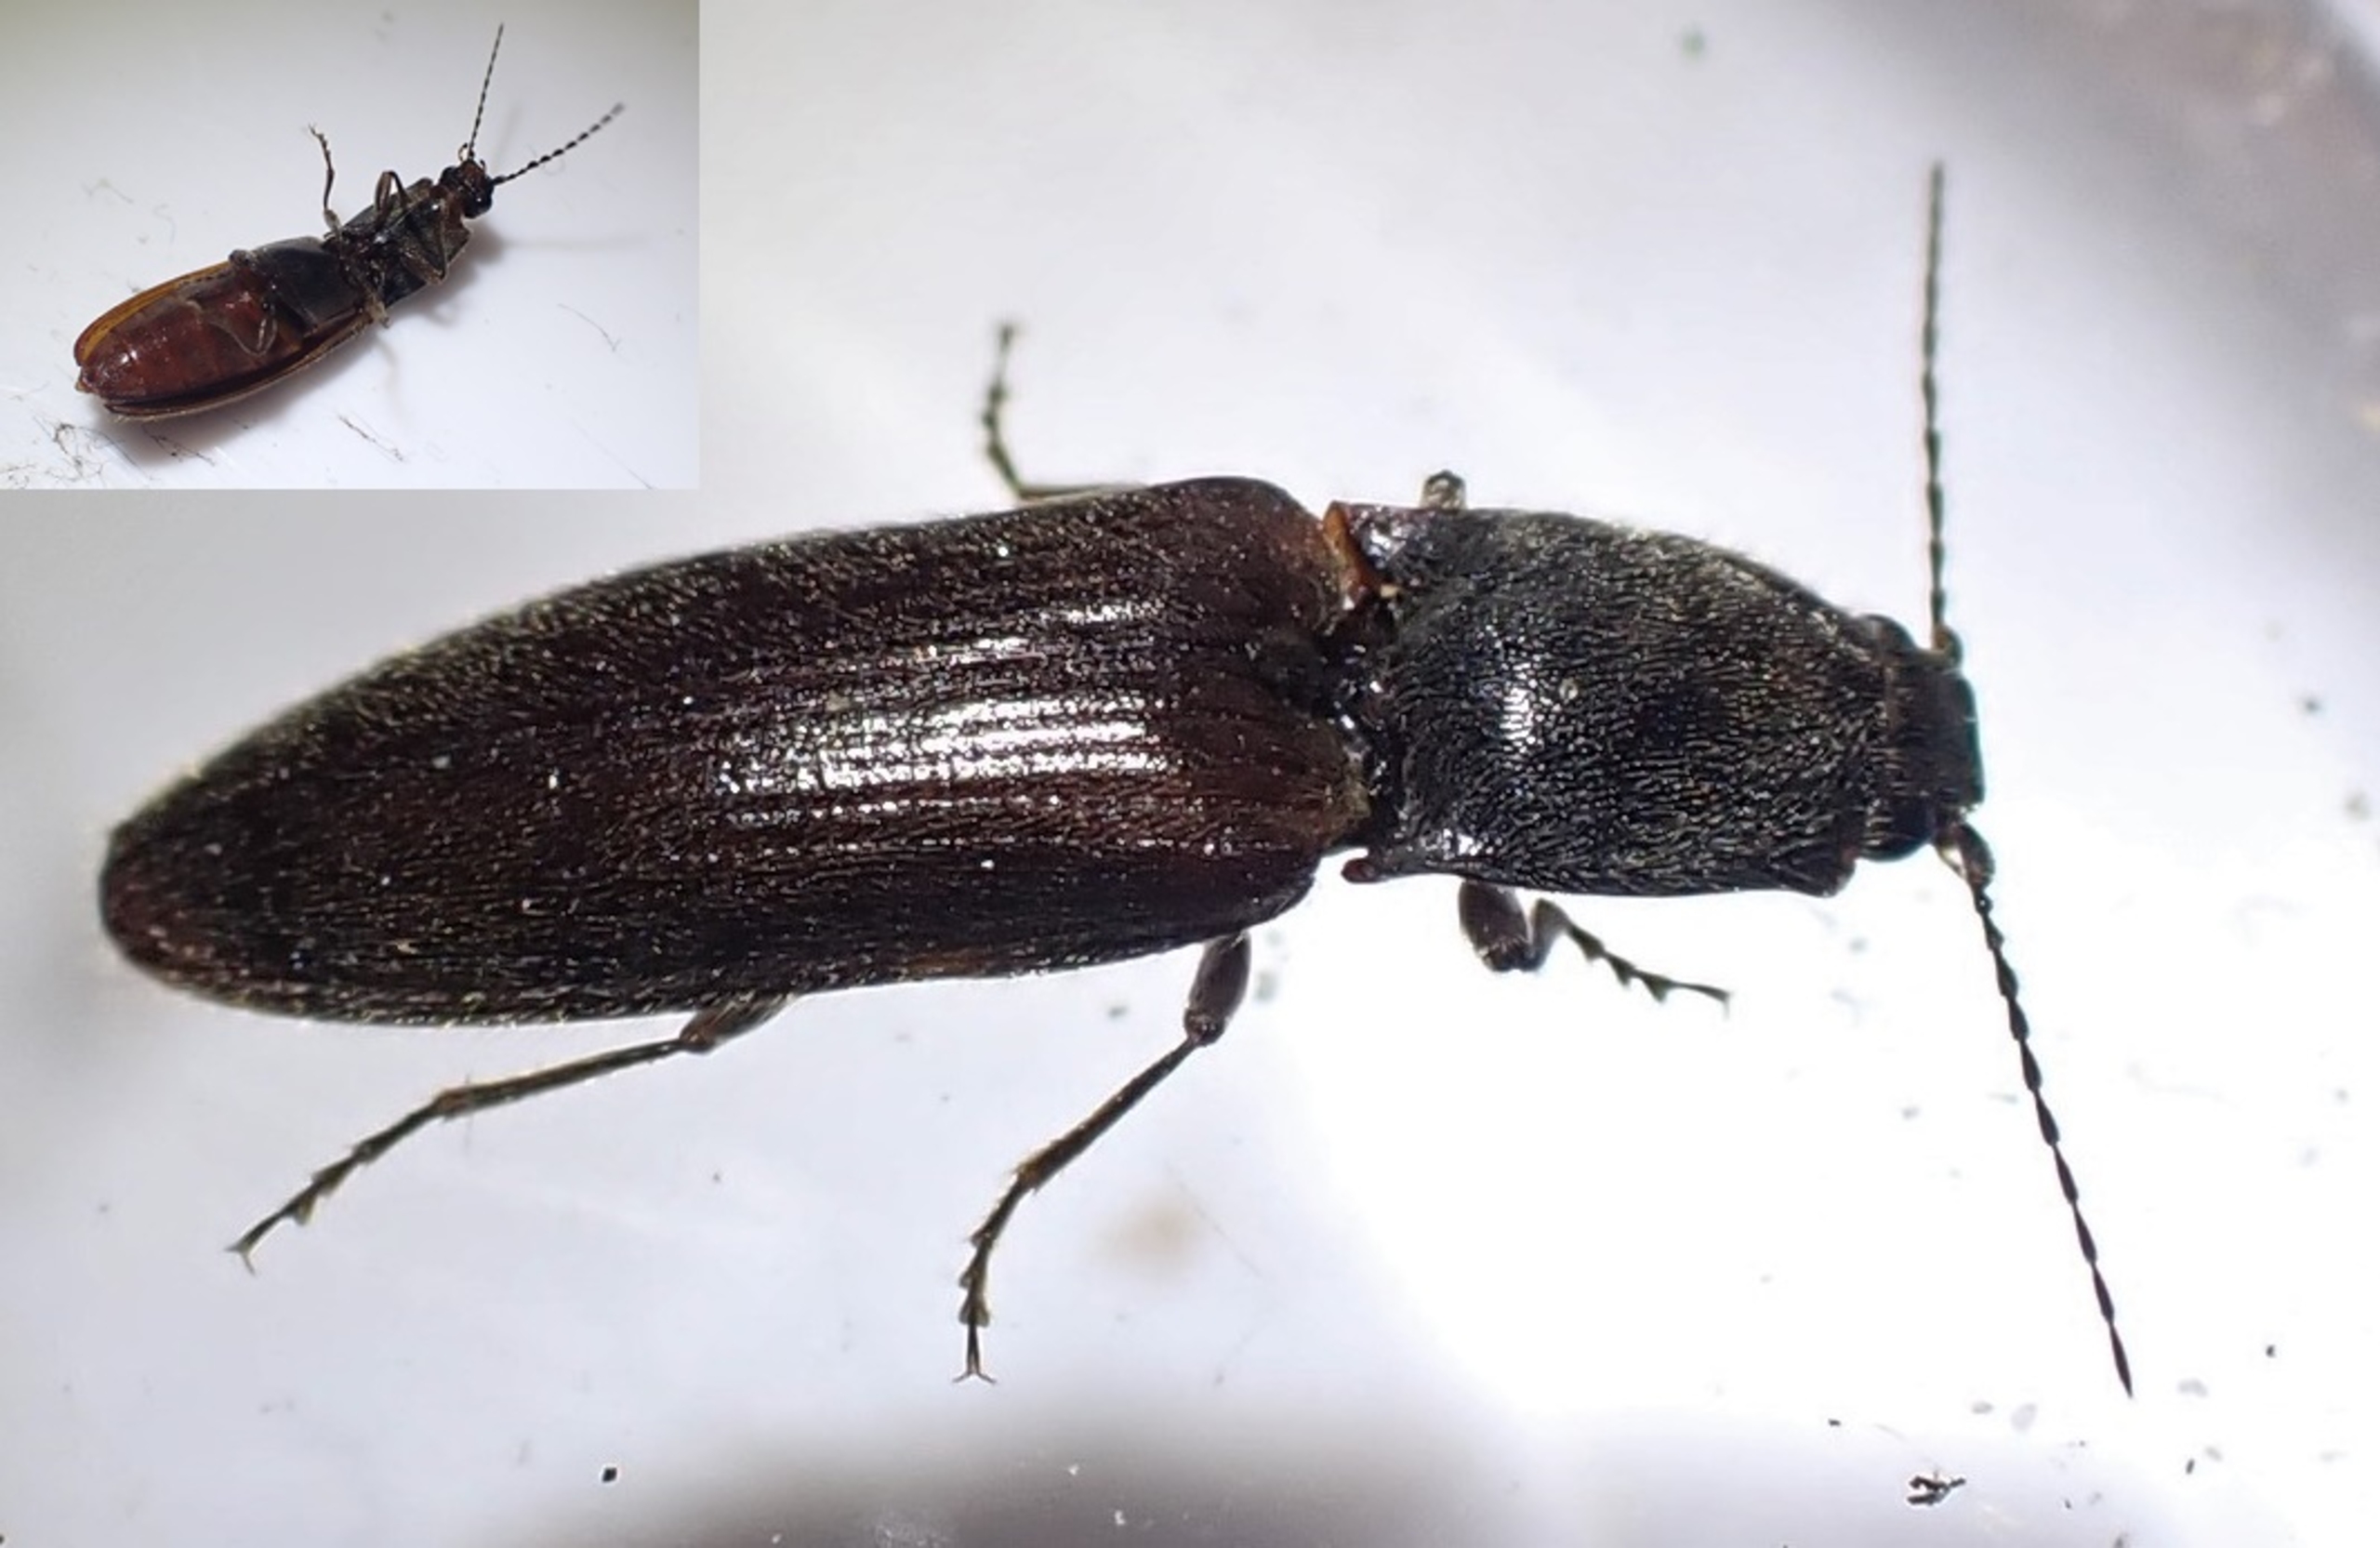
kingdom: Animalia
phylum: Arthropoda
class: Insecta
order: Coleoptera
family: Elateridae
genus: Athous
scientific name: Athous haemorrhoidalis
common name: Rødhalet busksmælder
